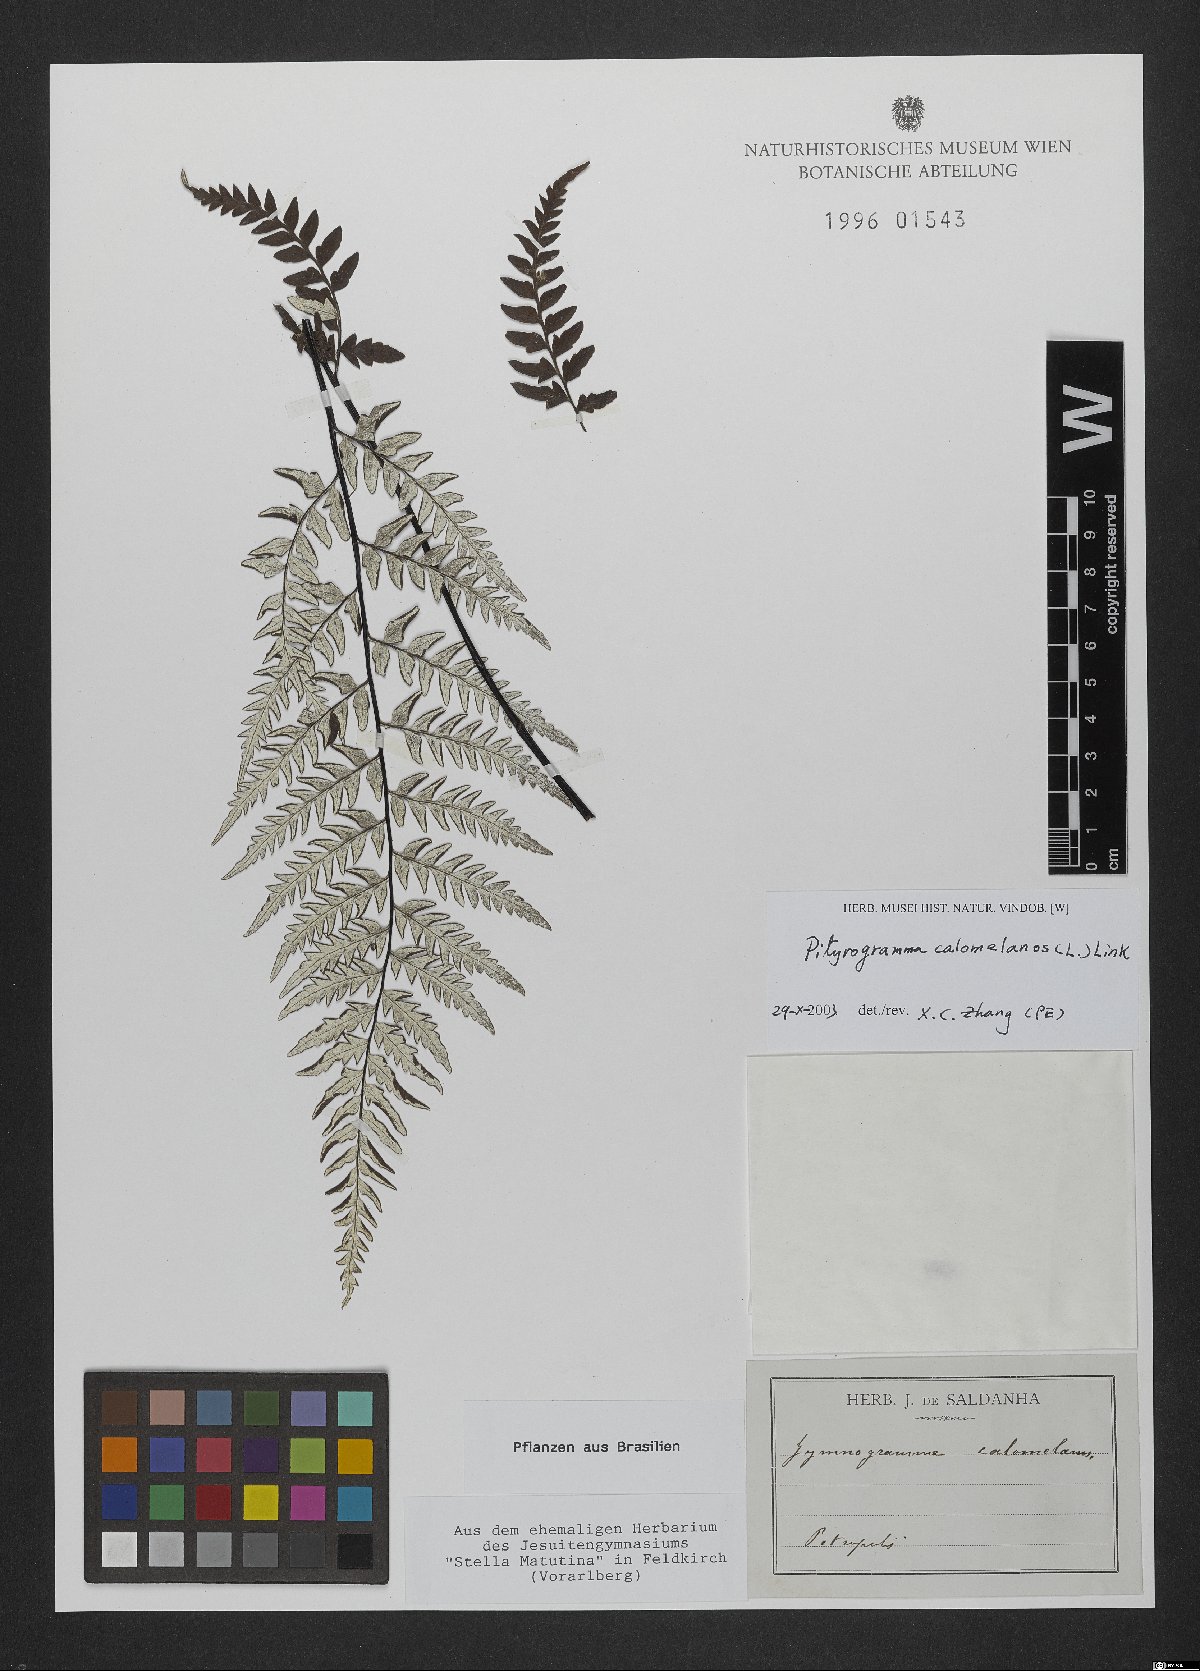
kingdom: Plantae
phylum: Tracheophyta
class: Polypodiopsida
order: Polypodiales
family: Pteridaceae
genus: Pityrogramma
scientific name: Pityrogramma calomelanos
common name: Dixie silverback fern
